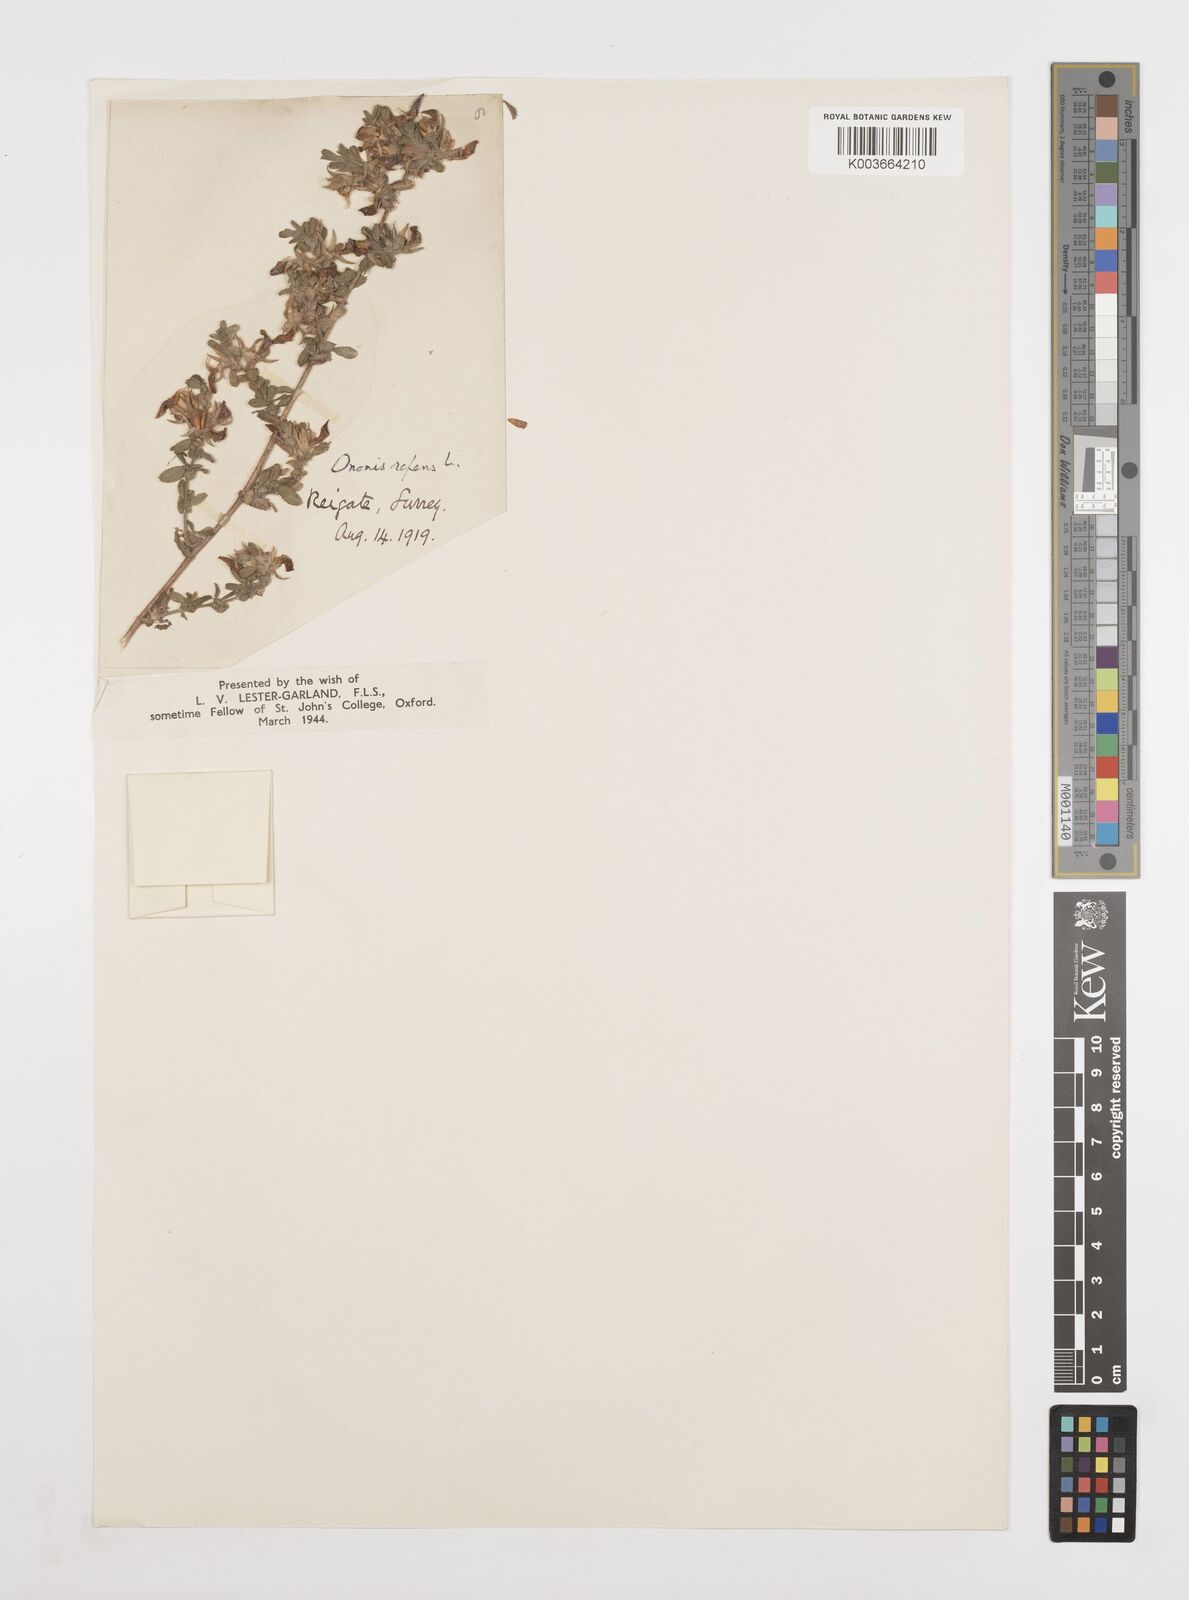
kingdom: Plantae
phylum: Tracheophyta
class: Magnoliopsida
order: Fabales
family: Fabaceae
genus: Ononis
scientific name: Ononis spinosa
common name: Spiny restharrow
